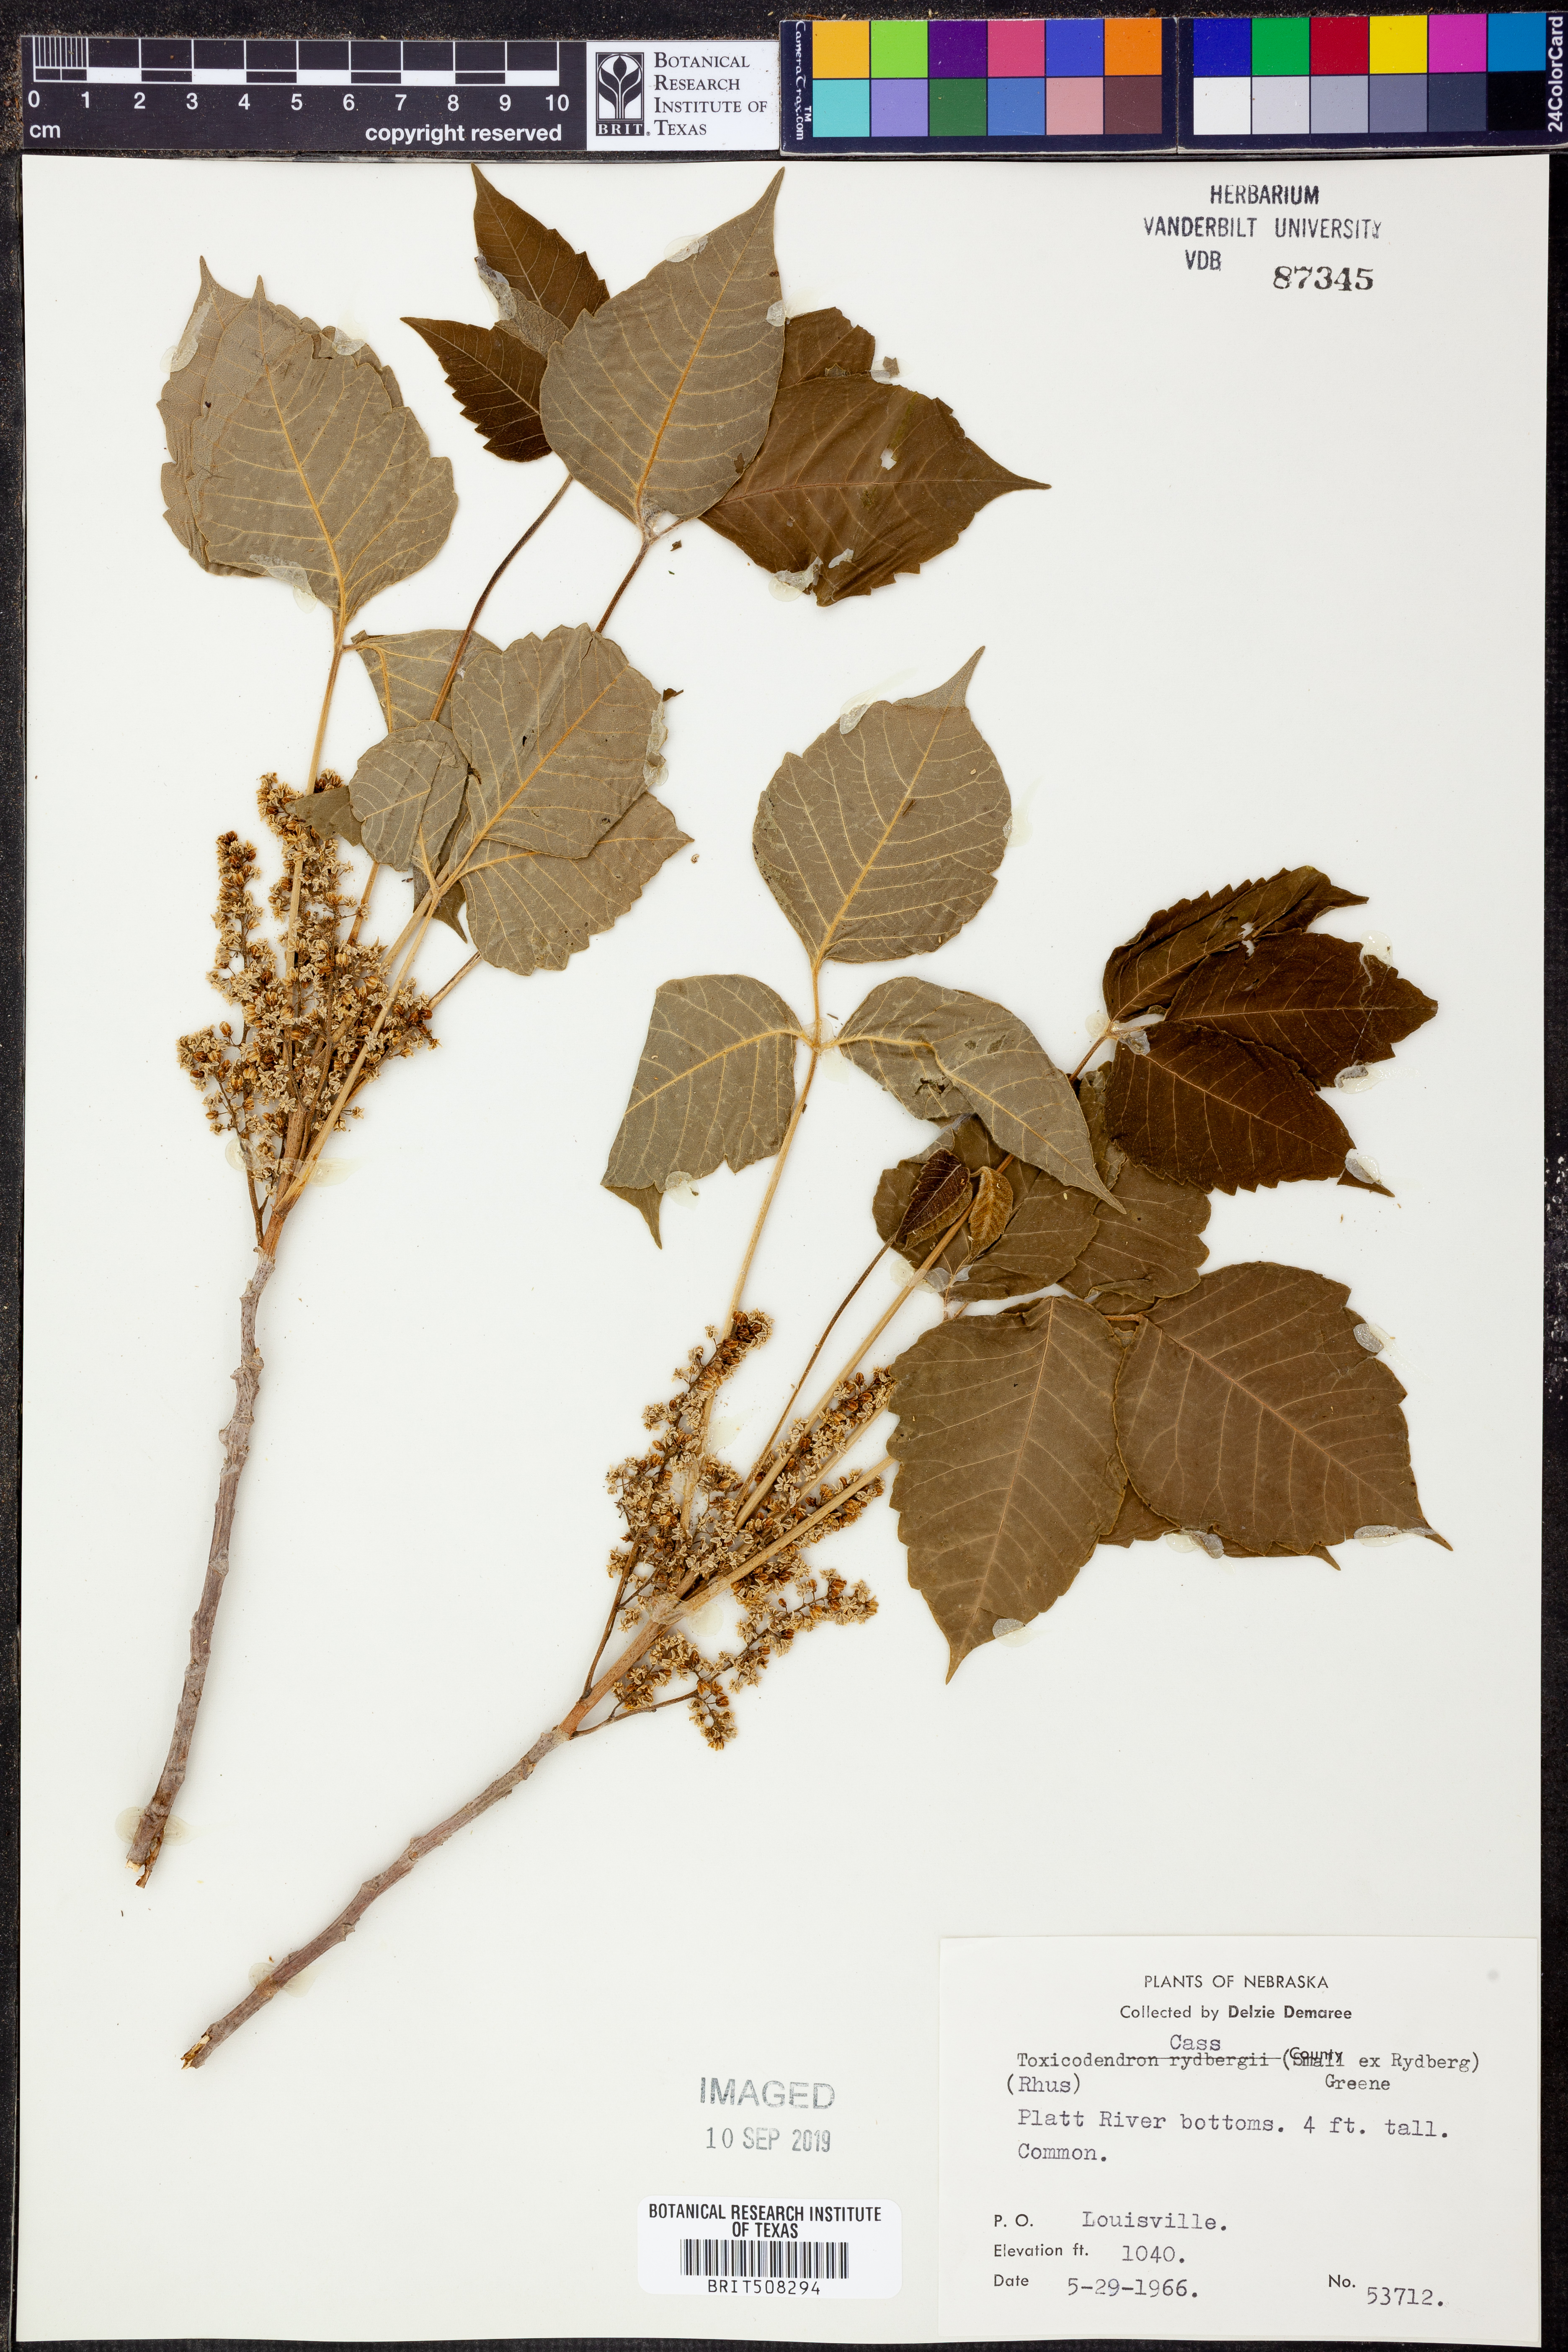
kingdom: Plantae
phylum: Tracheophyta
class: Magnoliopsida
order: Sapindales
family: Anacardiaceae
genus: Toxicodendron
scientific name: Toxicodendron rydbergii
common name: Rydberg's poison-ivy
